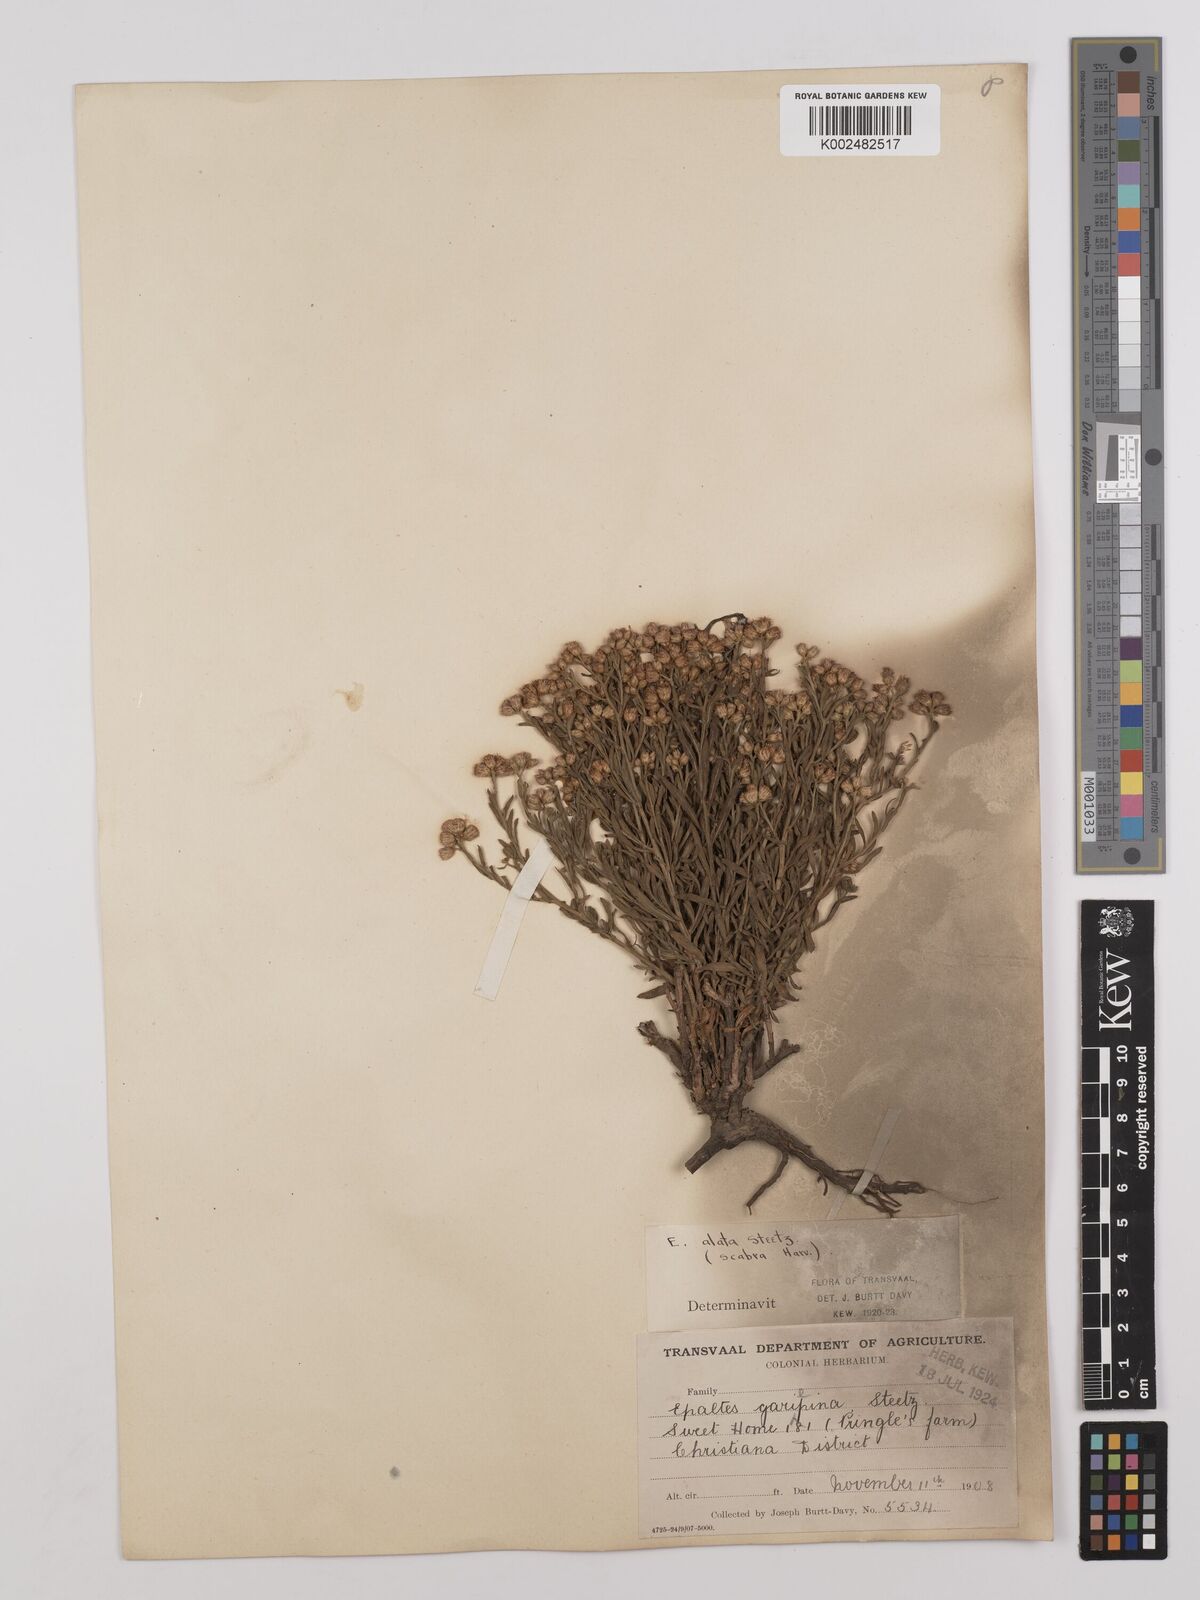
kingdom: Plantae
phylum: Tracheophyta
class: Magnoliopsida
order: Asterales
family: Asteraceae
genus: Litogyne
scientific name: Litogyne gariepina
